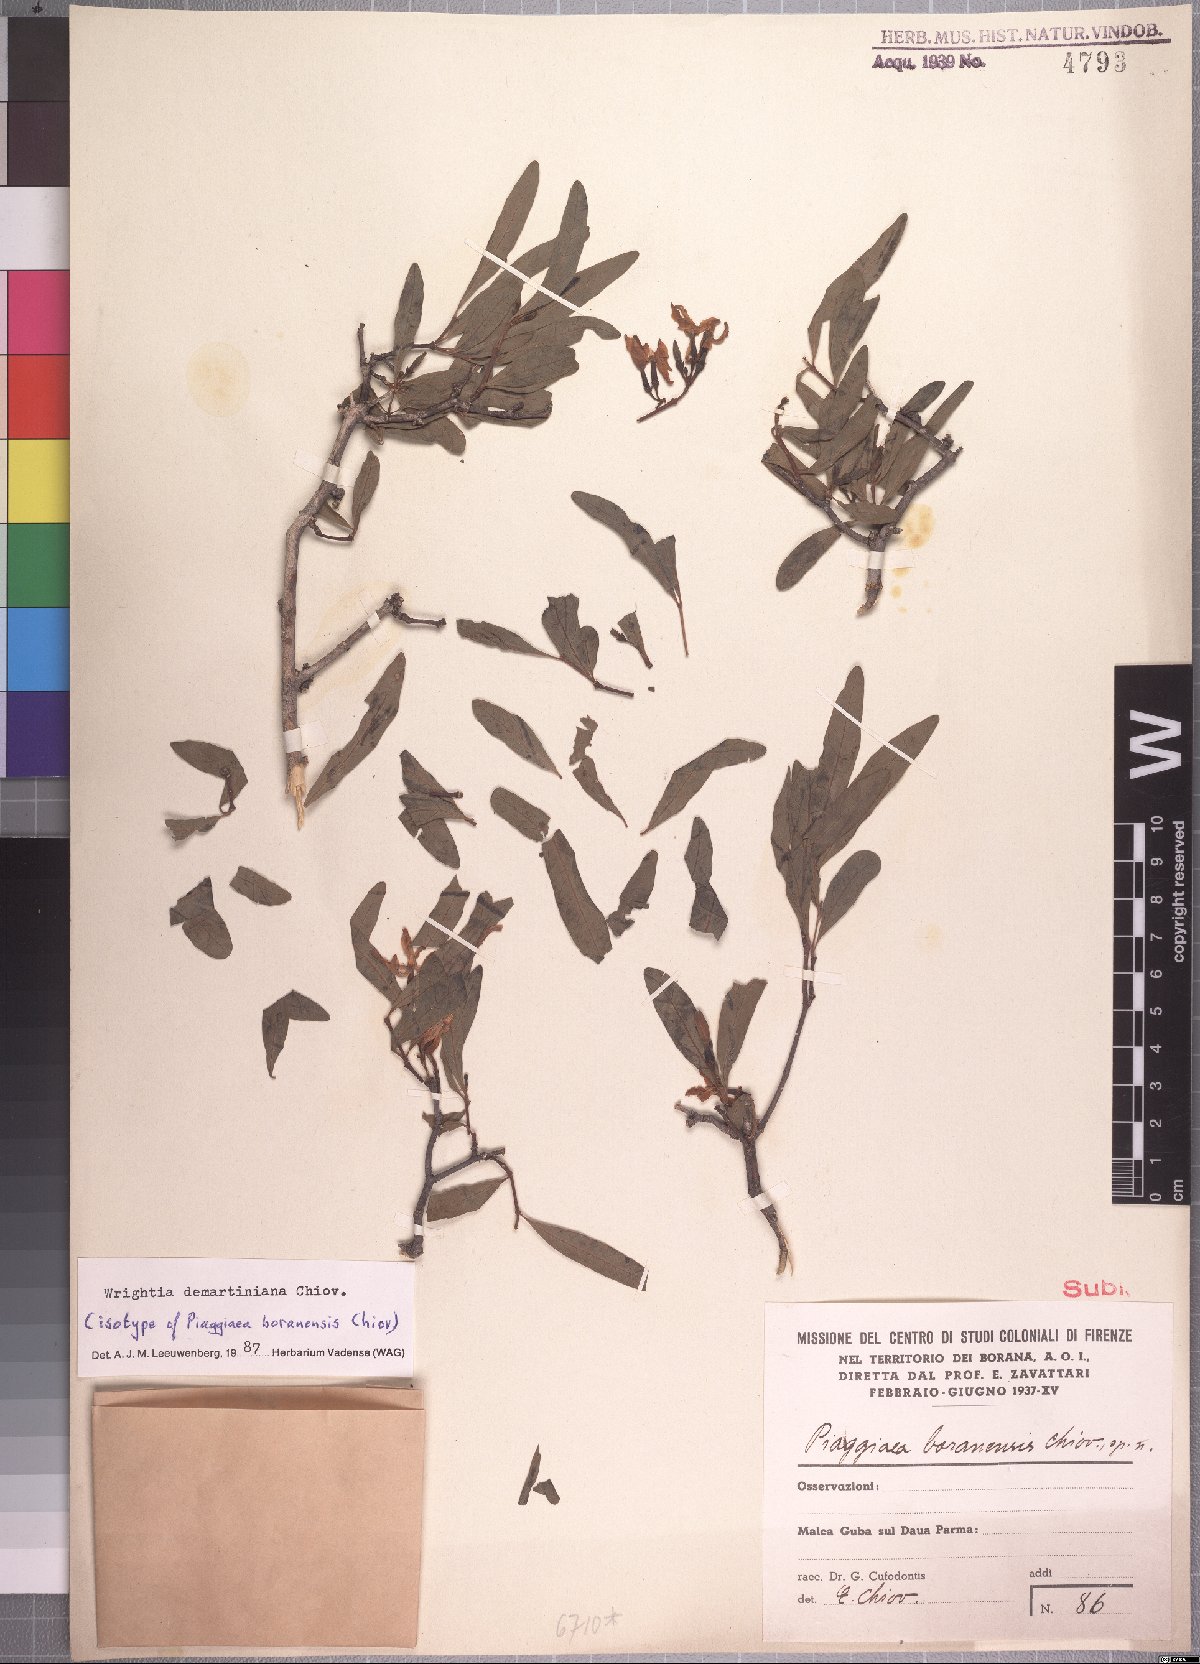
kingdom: Plantae
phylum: Tracheophyta
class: Magnoliopsida
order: Gentianales
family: Apocynaceae
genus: Wrightia
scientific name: Wrightia demartiniana
